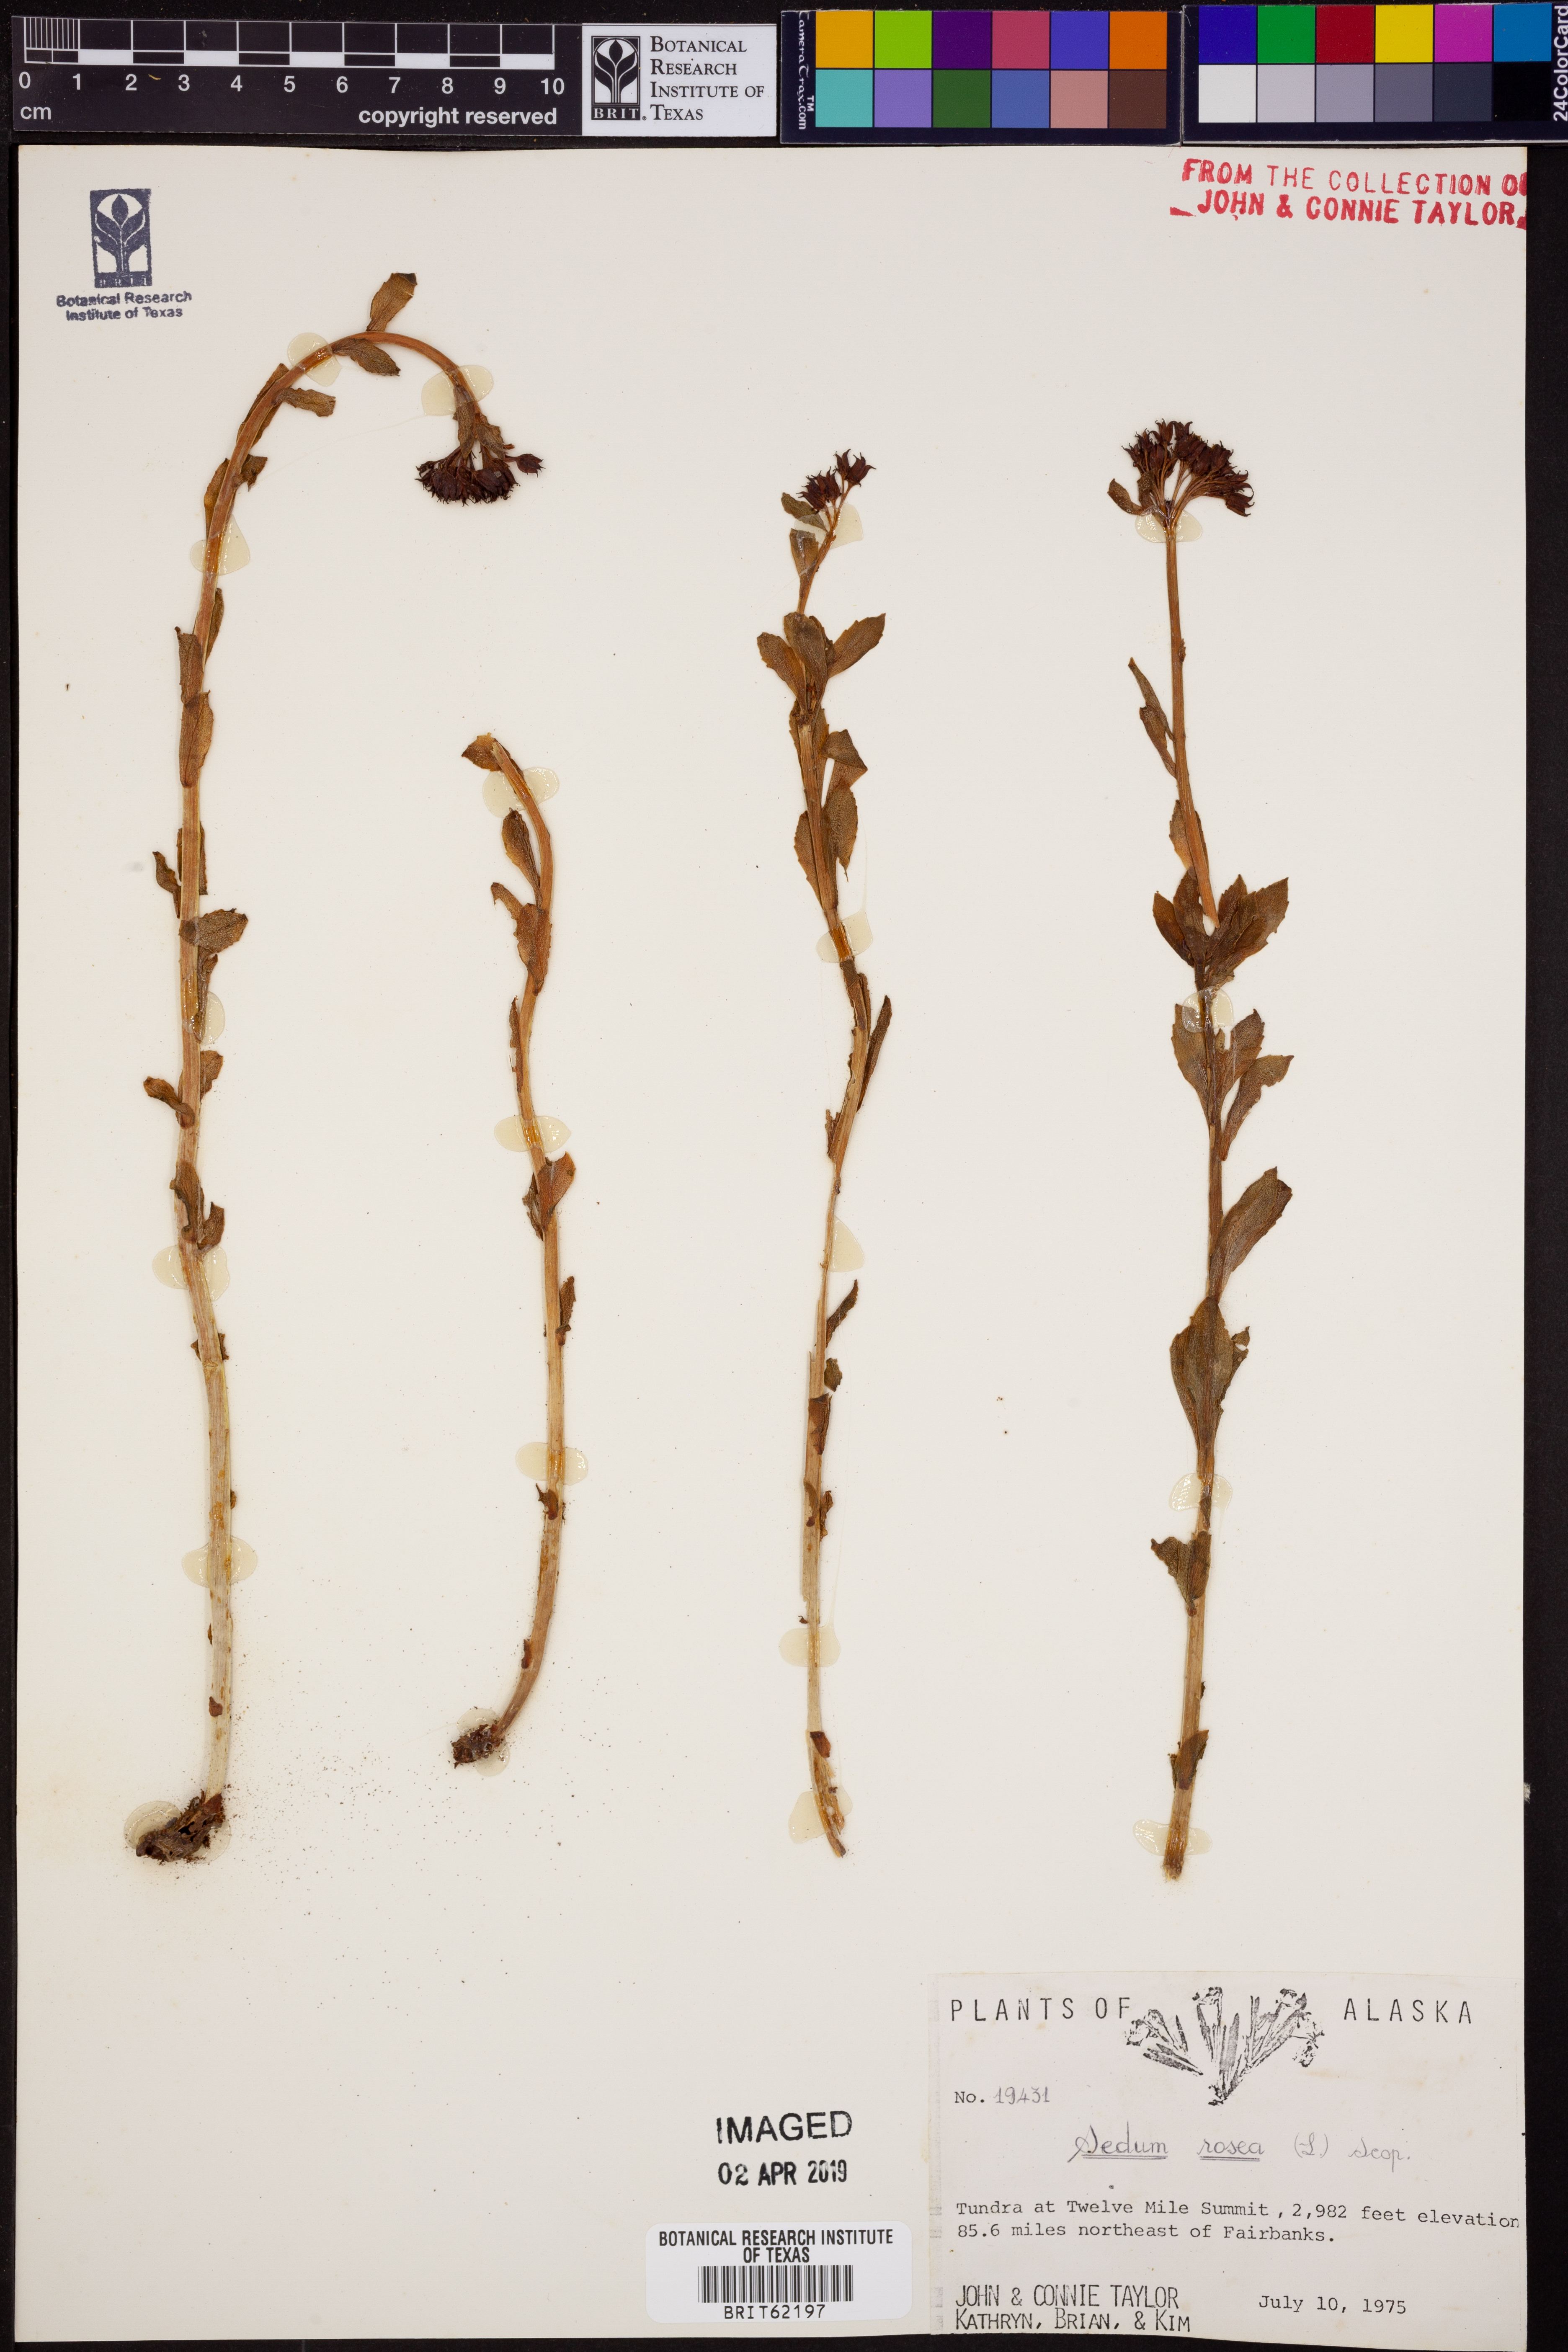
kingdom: Plantae
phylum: Tracheophyta
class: Magnoliopsida
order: Saxifragales
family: Crassulaceae
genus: Rhodiola
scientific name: Rhodiola rosea
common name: Roseroot
